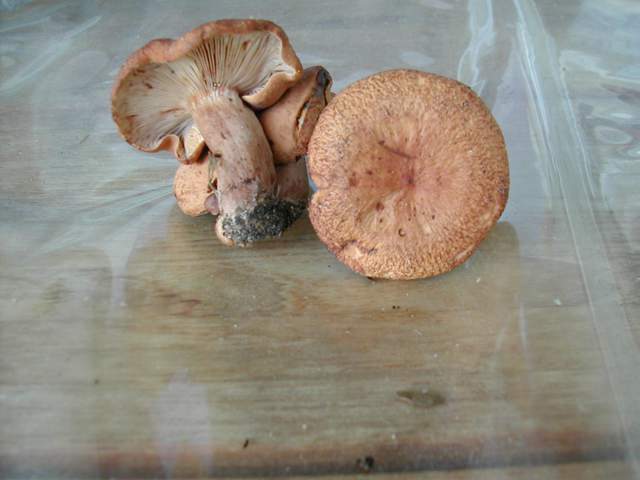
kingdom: Fungi
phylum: Basidiomycota
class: Agaricomycetes
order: Russulales
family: Russulaceae
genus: Lactarius
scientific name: Lactarius rubrocinctus
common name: halsbånd-mælkehat
